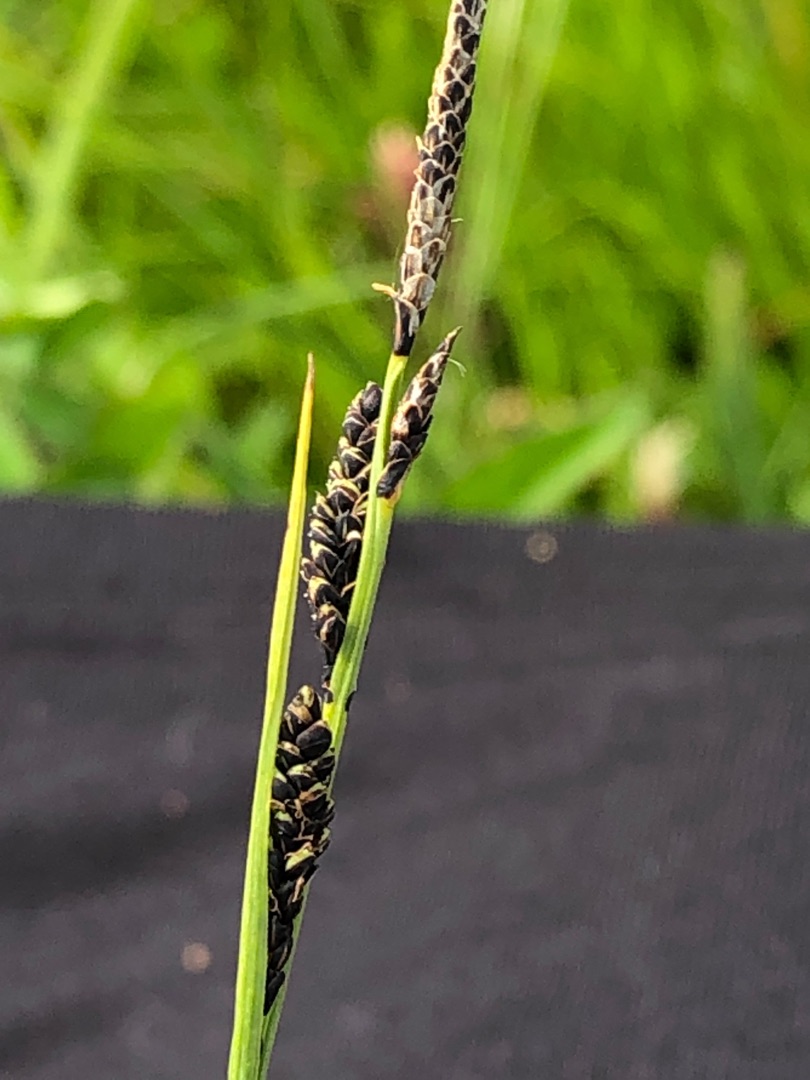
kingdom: Plantae
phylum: Tracheophyta
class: Liliopsida
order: Poales
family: Cyperaceae
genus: Carex
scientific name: Carex nigra
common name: Almindelig star
